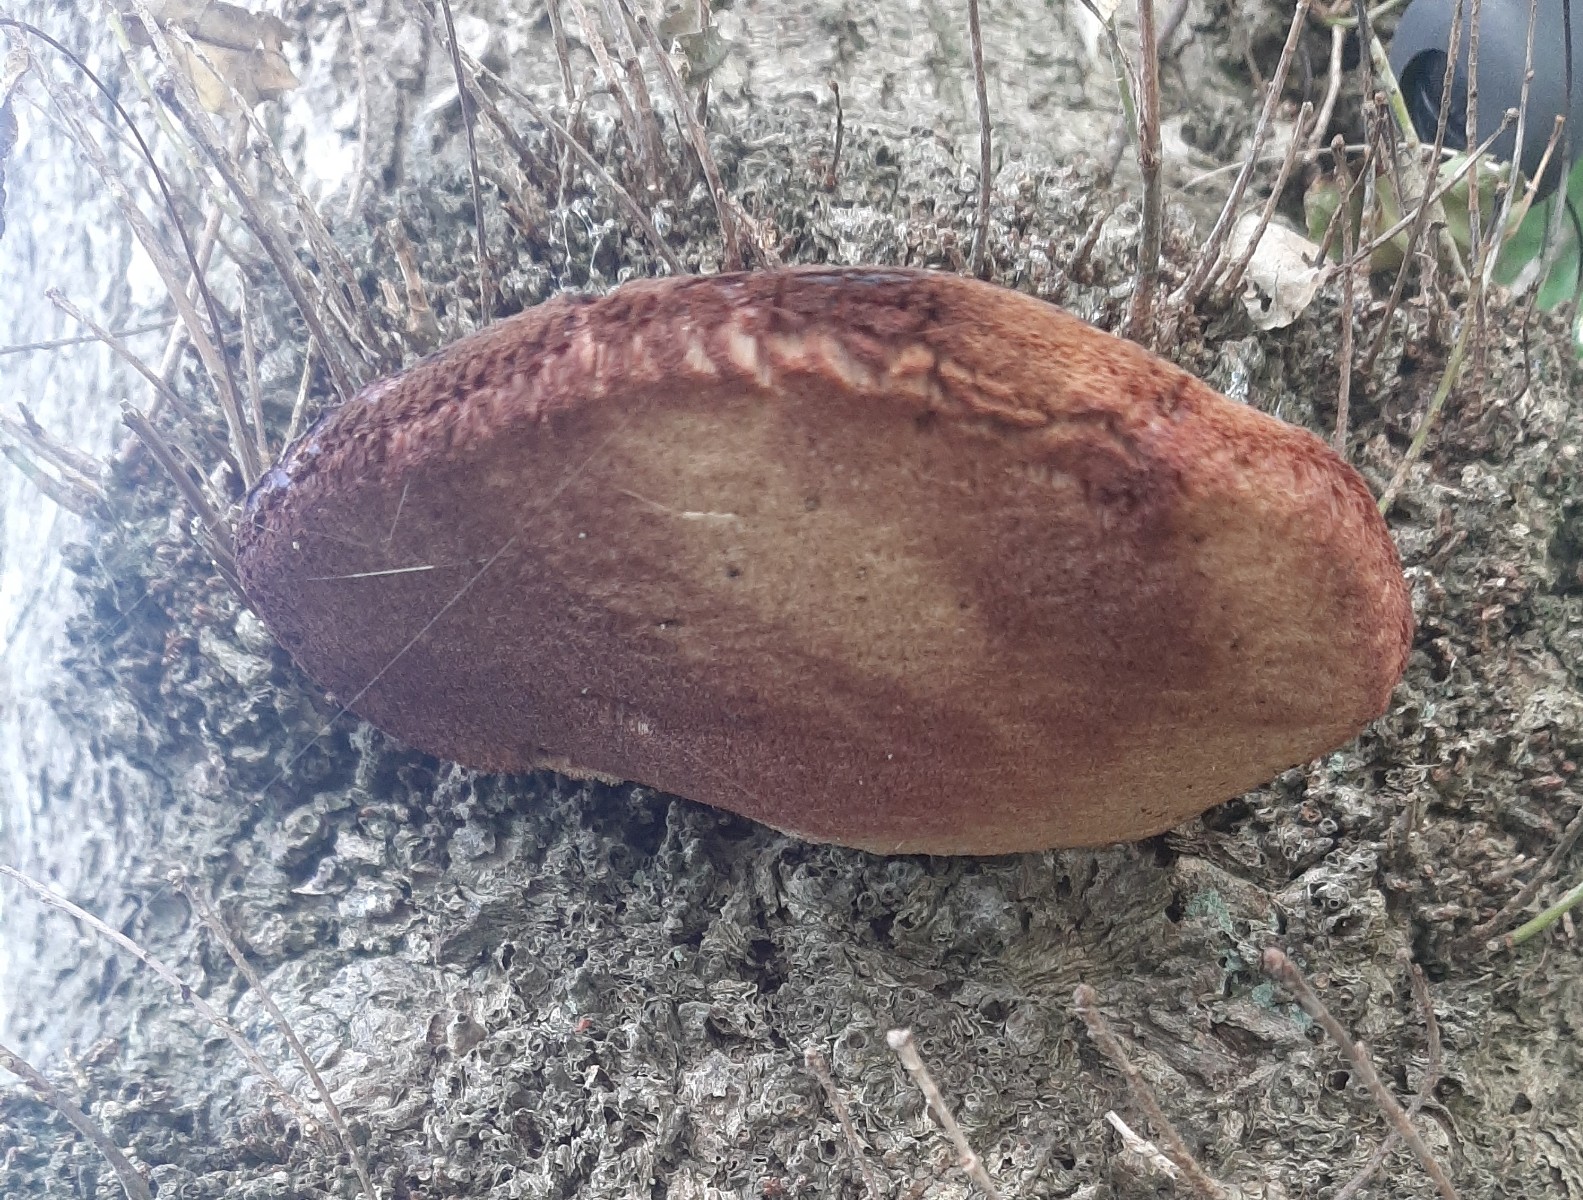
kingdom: Fungi
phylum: Basidiomycota
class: Agaricomycetes
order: Agaricales
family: Fistulinaceae
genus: Fistulina
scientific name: Fistulina hepatica
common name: oksetunge
